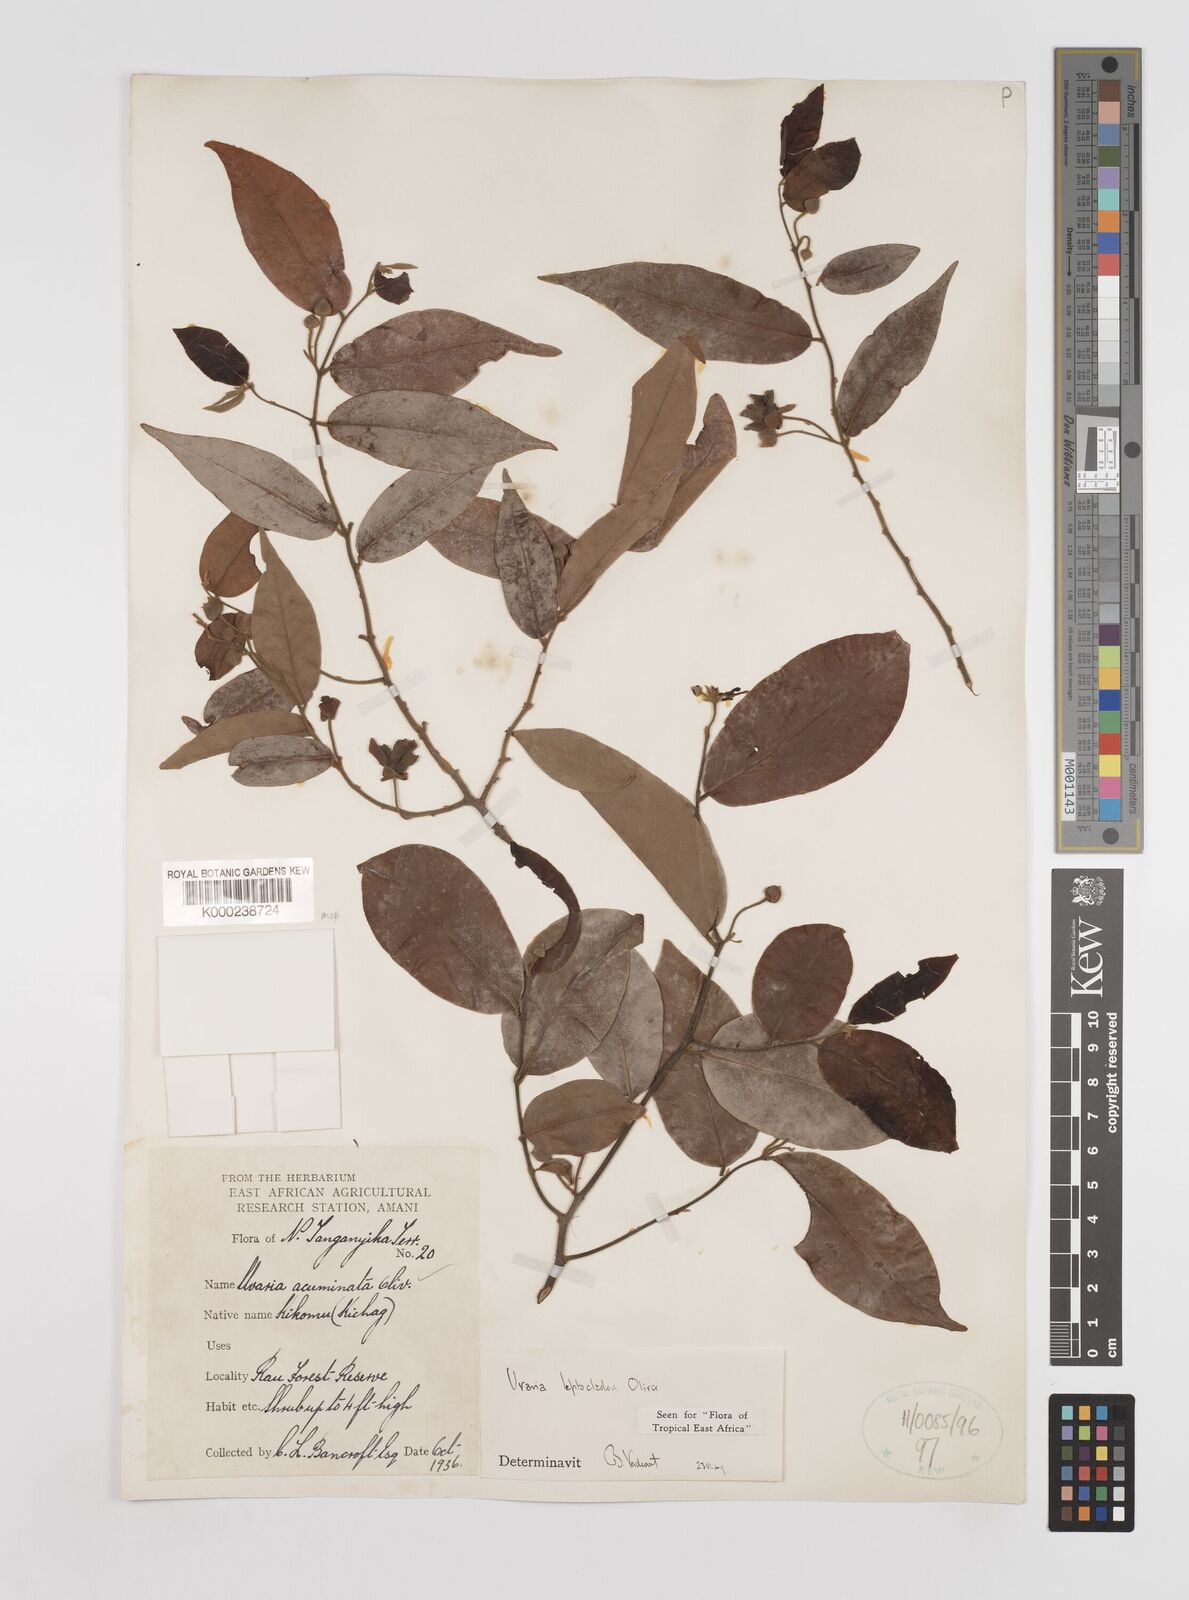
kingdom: Plantae
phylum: Tracheophyta
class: Magnoliopsida
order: Magnoliales
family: Annonaceae
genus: Uvaria
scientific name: Uvaria leptocladon
